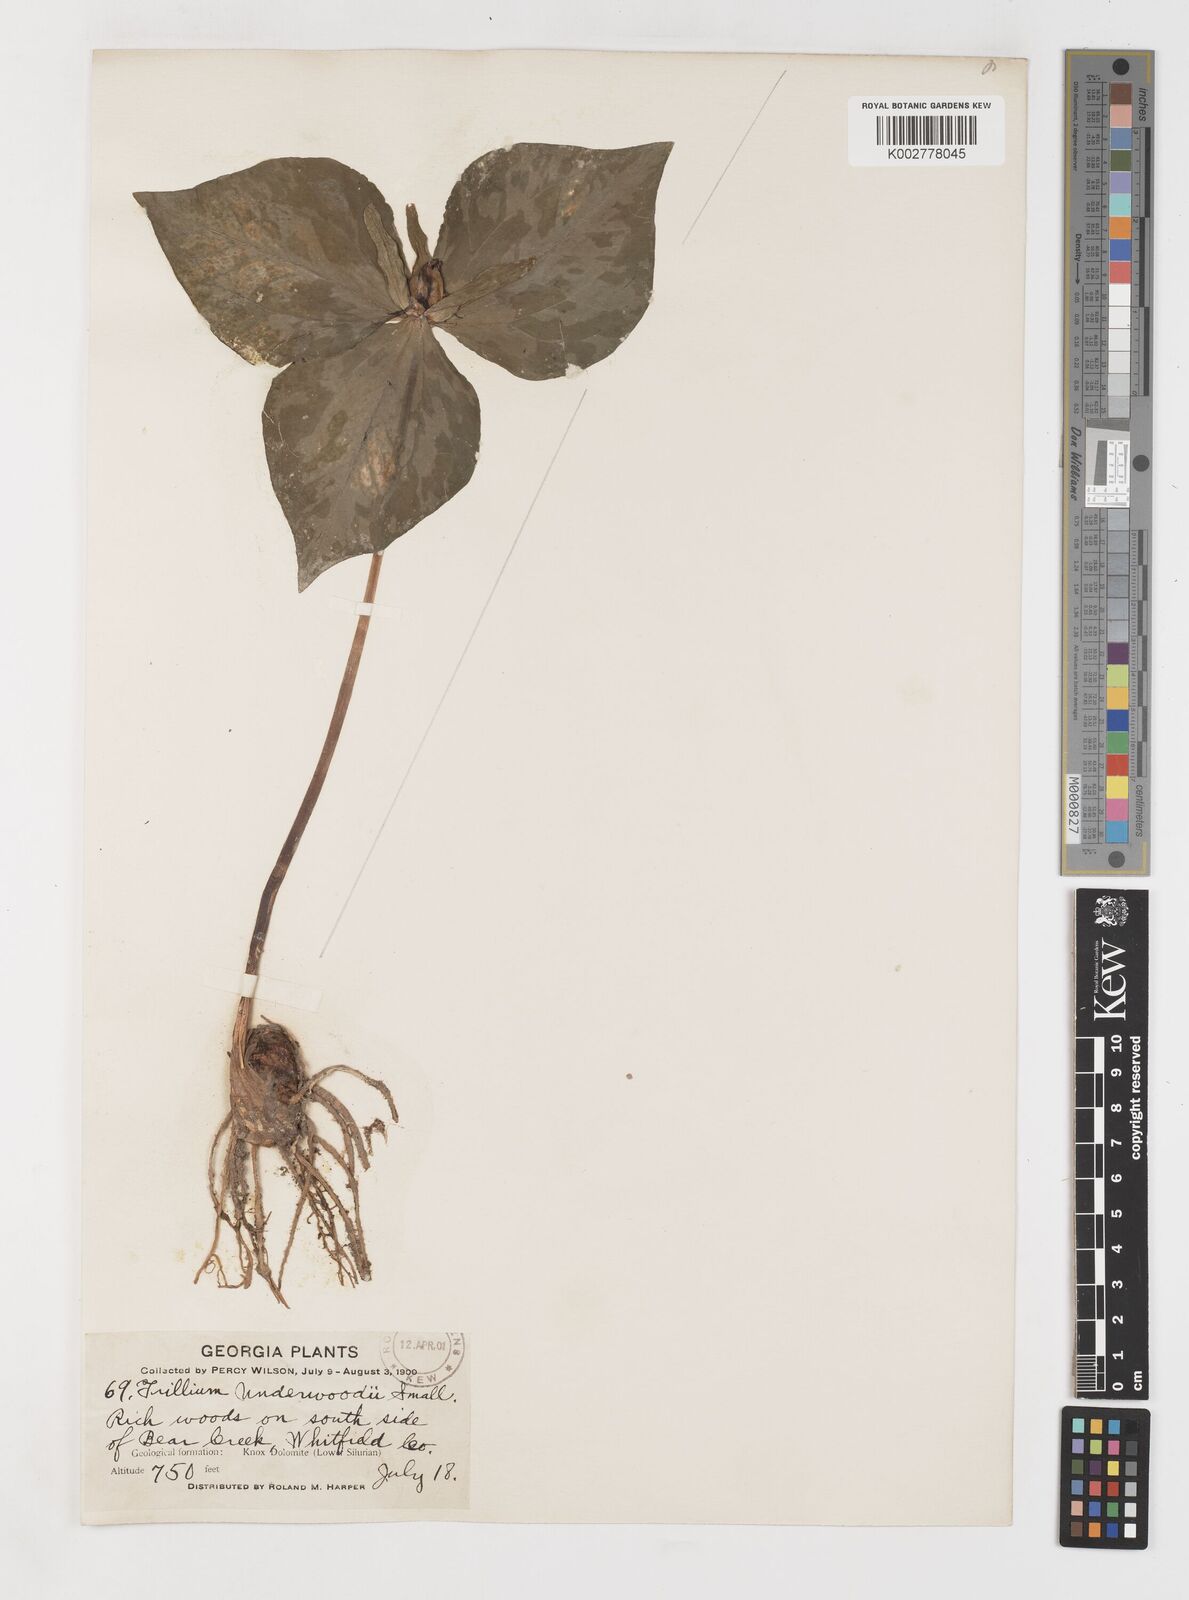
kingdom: Plantae
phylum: Tracheophyta
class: Liliopsida
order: Liliales
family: Melanthiaceae
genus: Trillium
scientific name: Trillium underwoodii
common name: Longbract wakerobin
